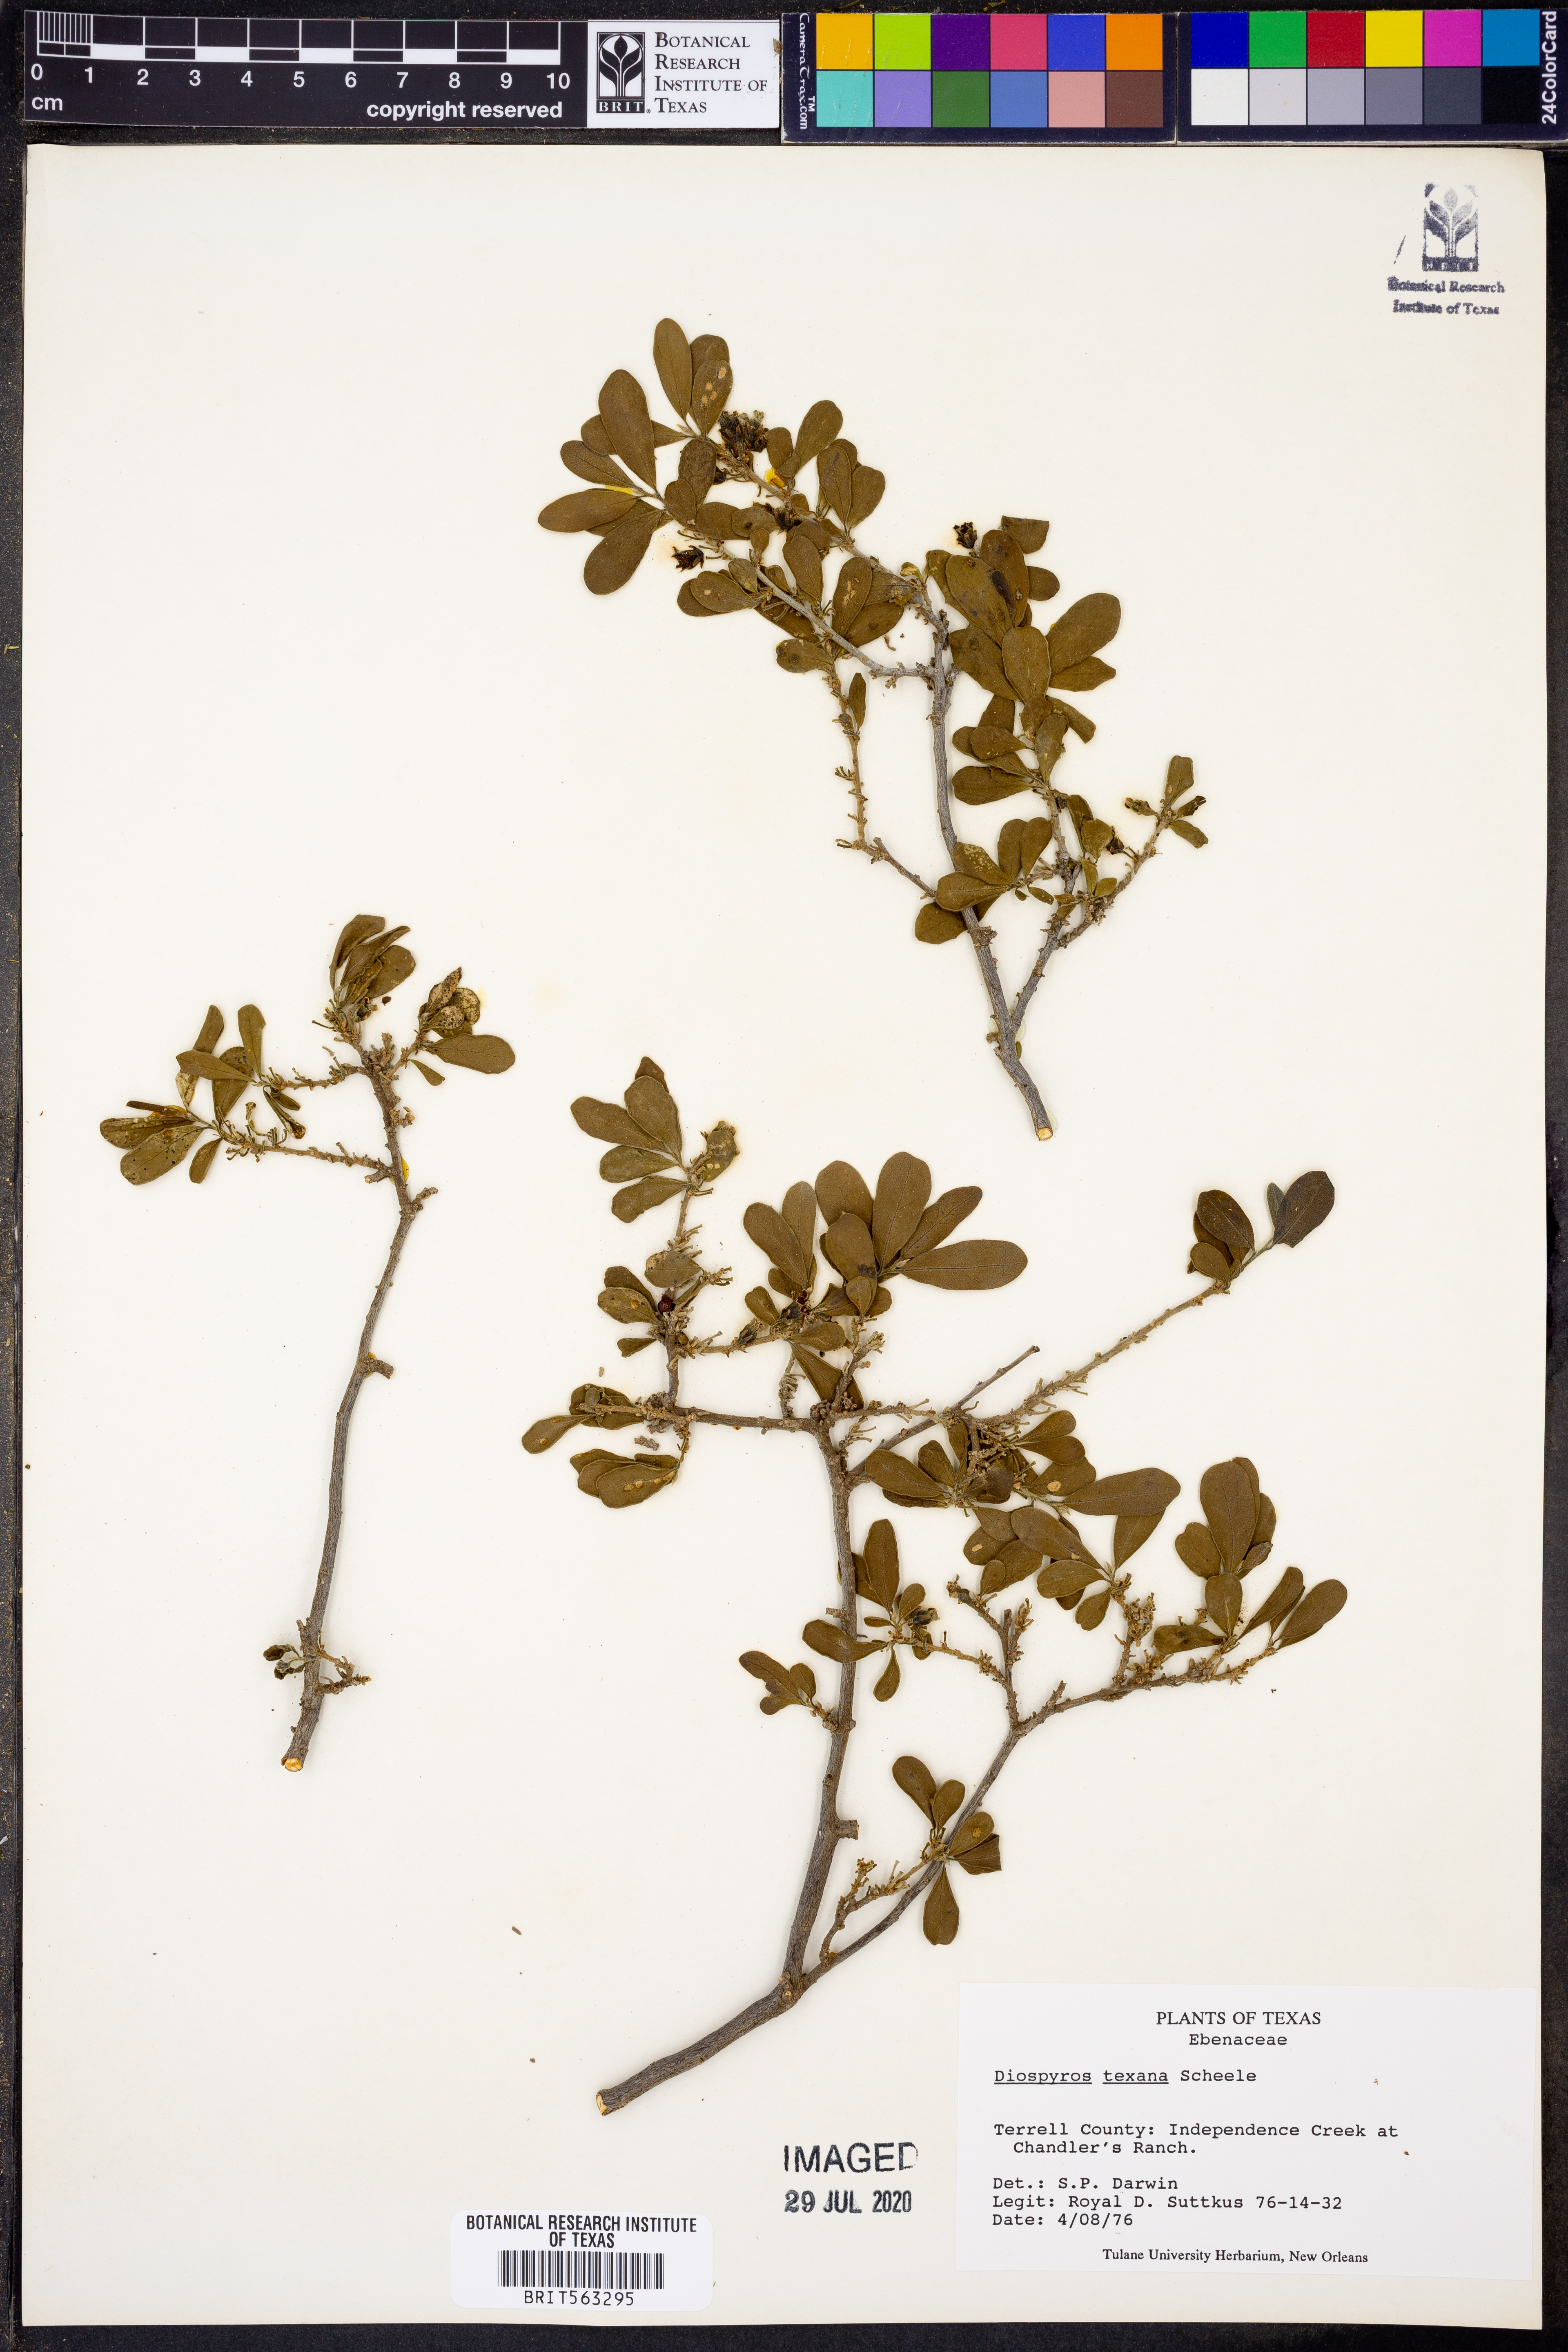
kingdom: Plantae
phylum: Tracheophyta
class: Magnoliopsida
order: Ericales
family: Ebenaceae
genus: Diospyros
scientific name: Diospyros texana
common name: Texas persimmon
